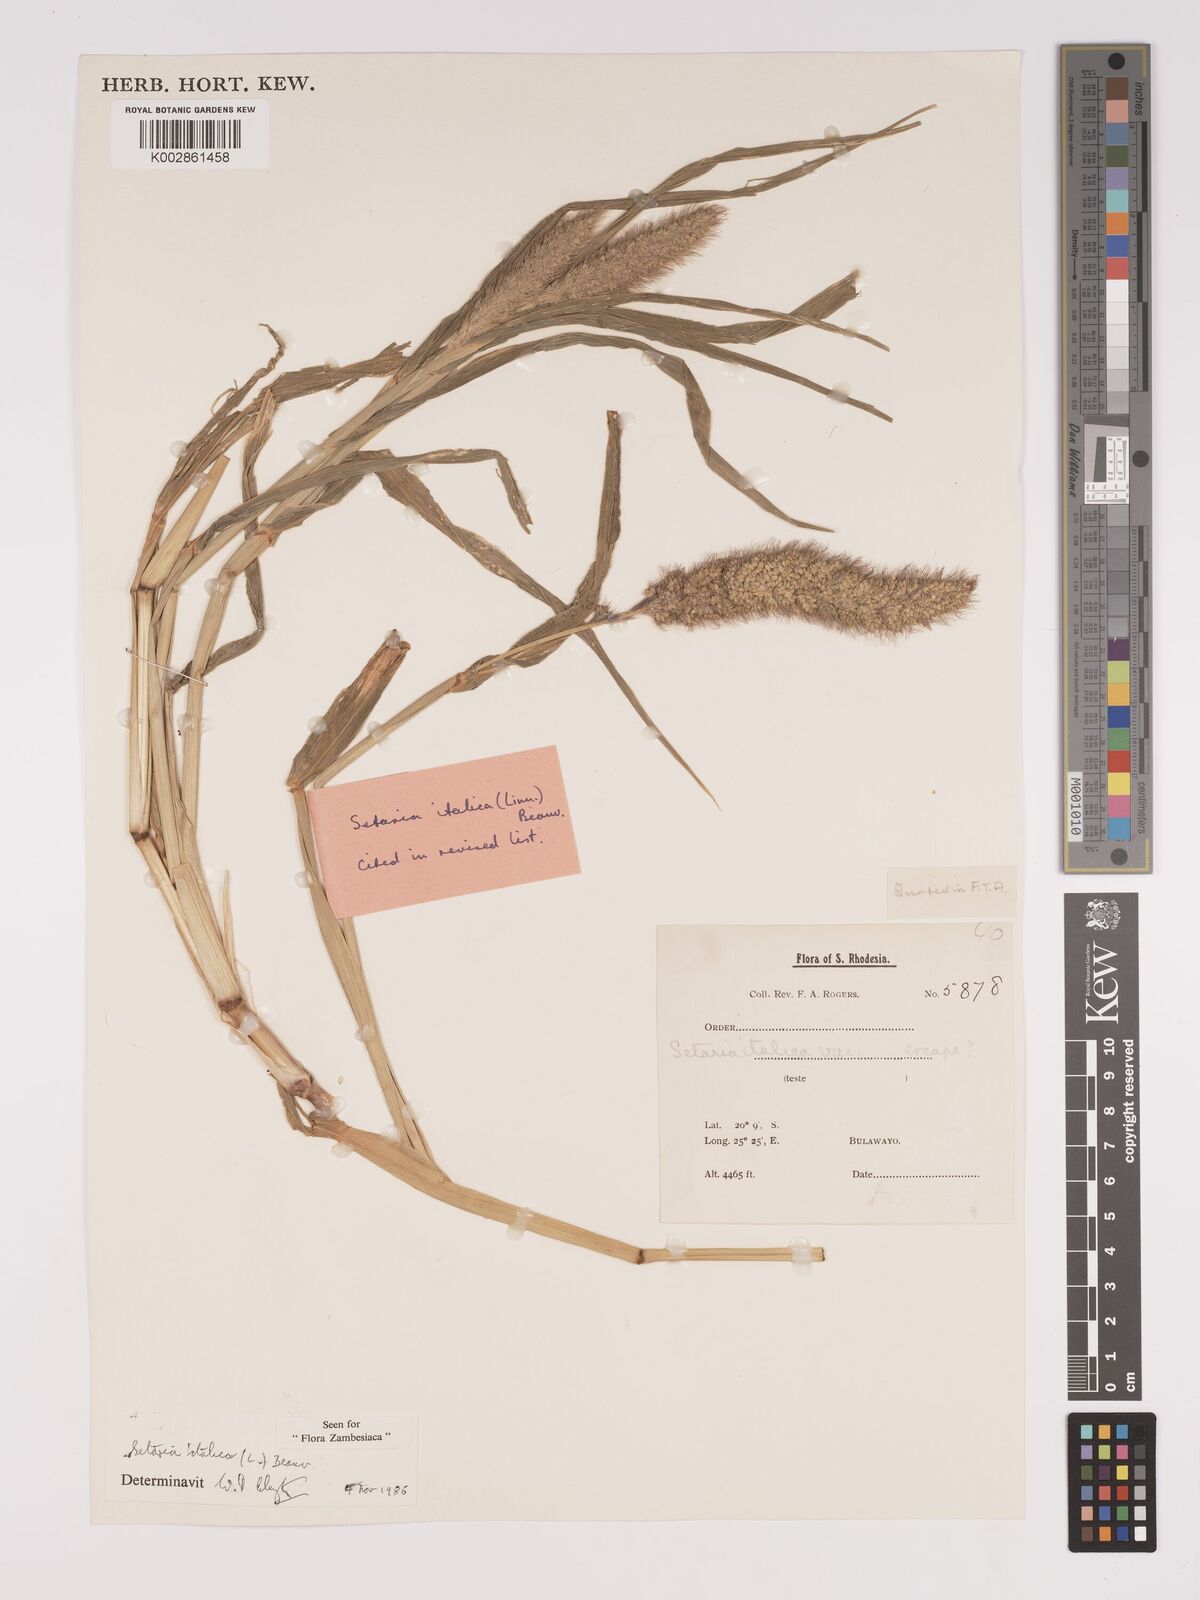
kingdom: Plantae
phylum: Tracheophyta
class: Liliopsida
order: Poales
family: Poaceae
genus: Setaria
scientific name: Setaria italica
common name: Foxtail bristle-grass
